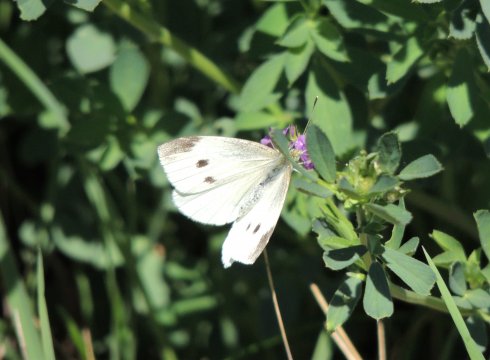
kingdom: Animalia
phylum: Arthropoda
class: Insecta
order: Lepidoptera
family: Pieridae
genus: Pieris
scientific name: Pieris rapae
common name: Cabbage White
